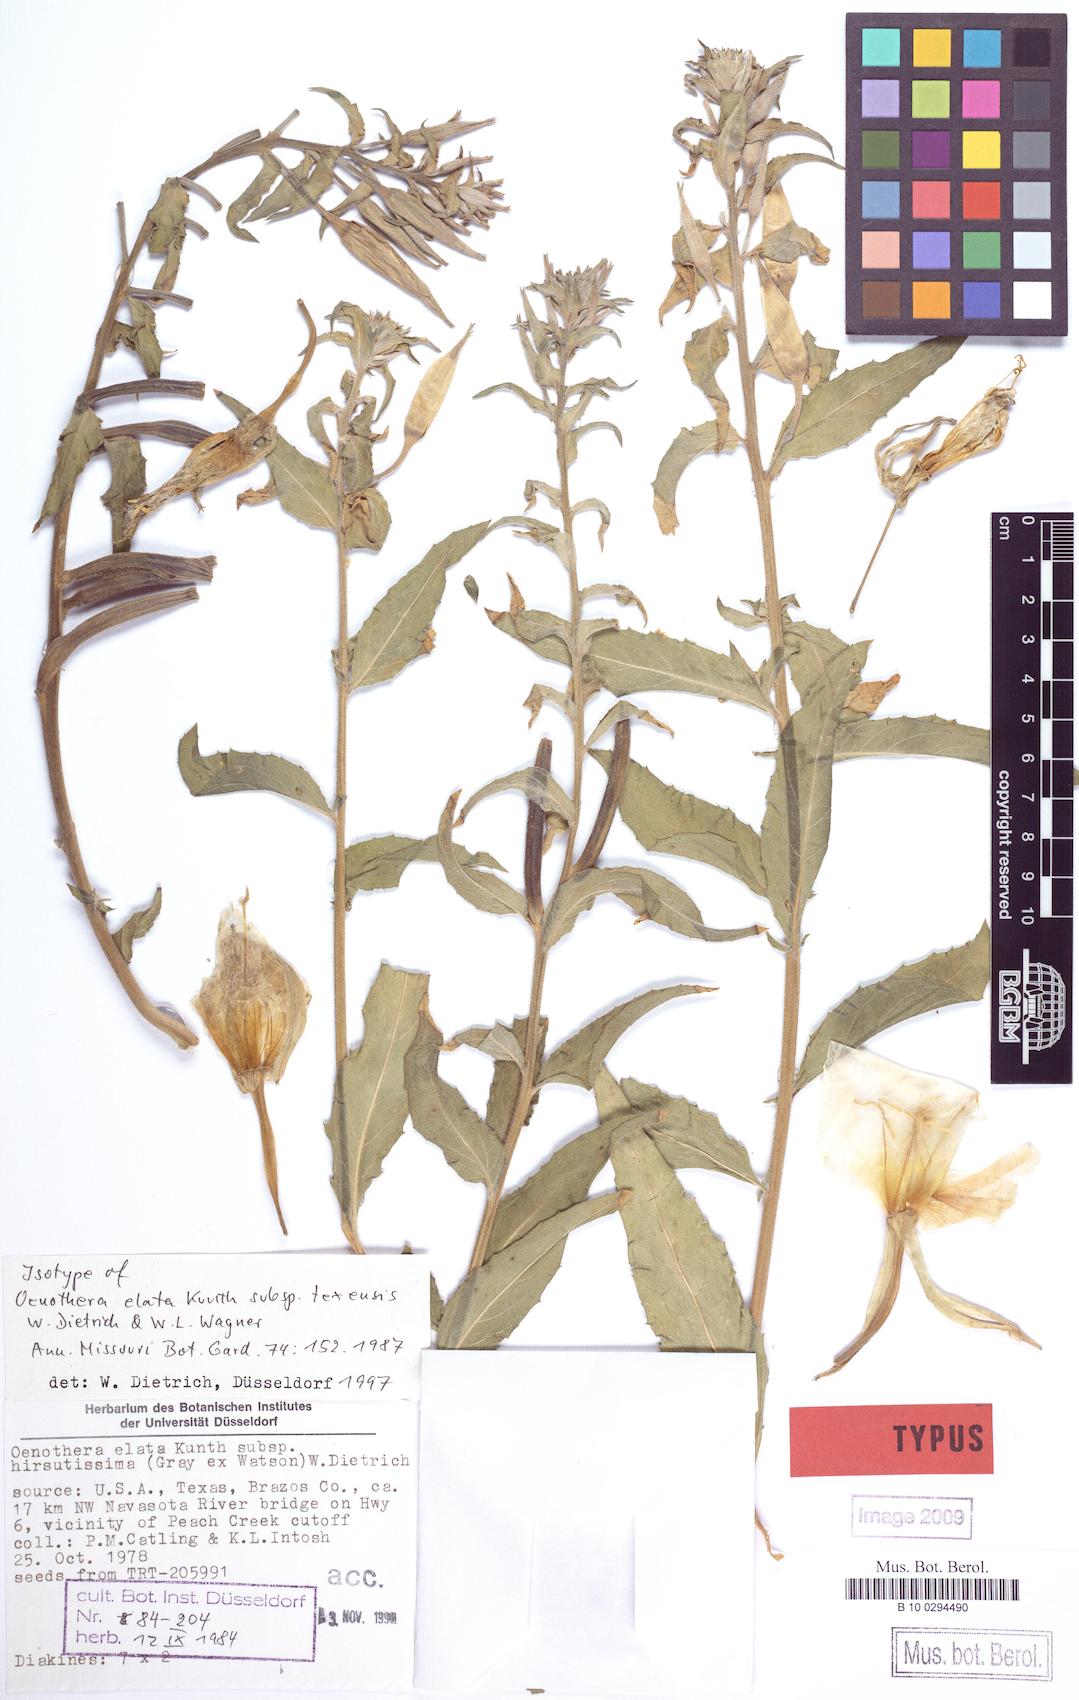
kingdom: Plantae
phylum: Tracheophyta
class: Magnoliopsida
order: Myrtales
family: Onagraceae
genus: Oenothera
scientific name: Oenothera elata
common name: Hooker's evening-primrose
